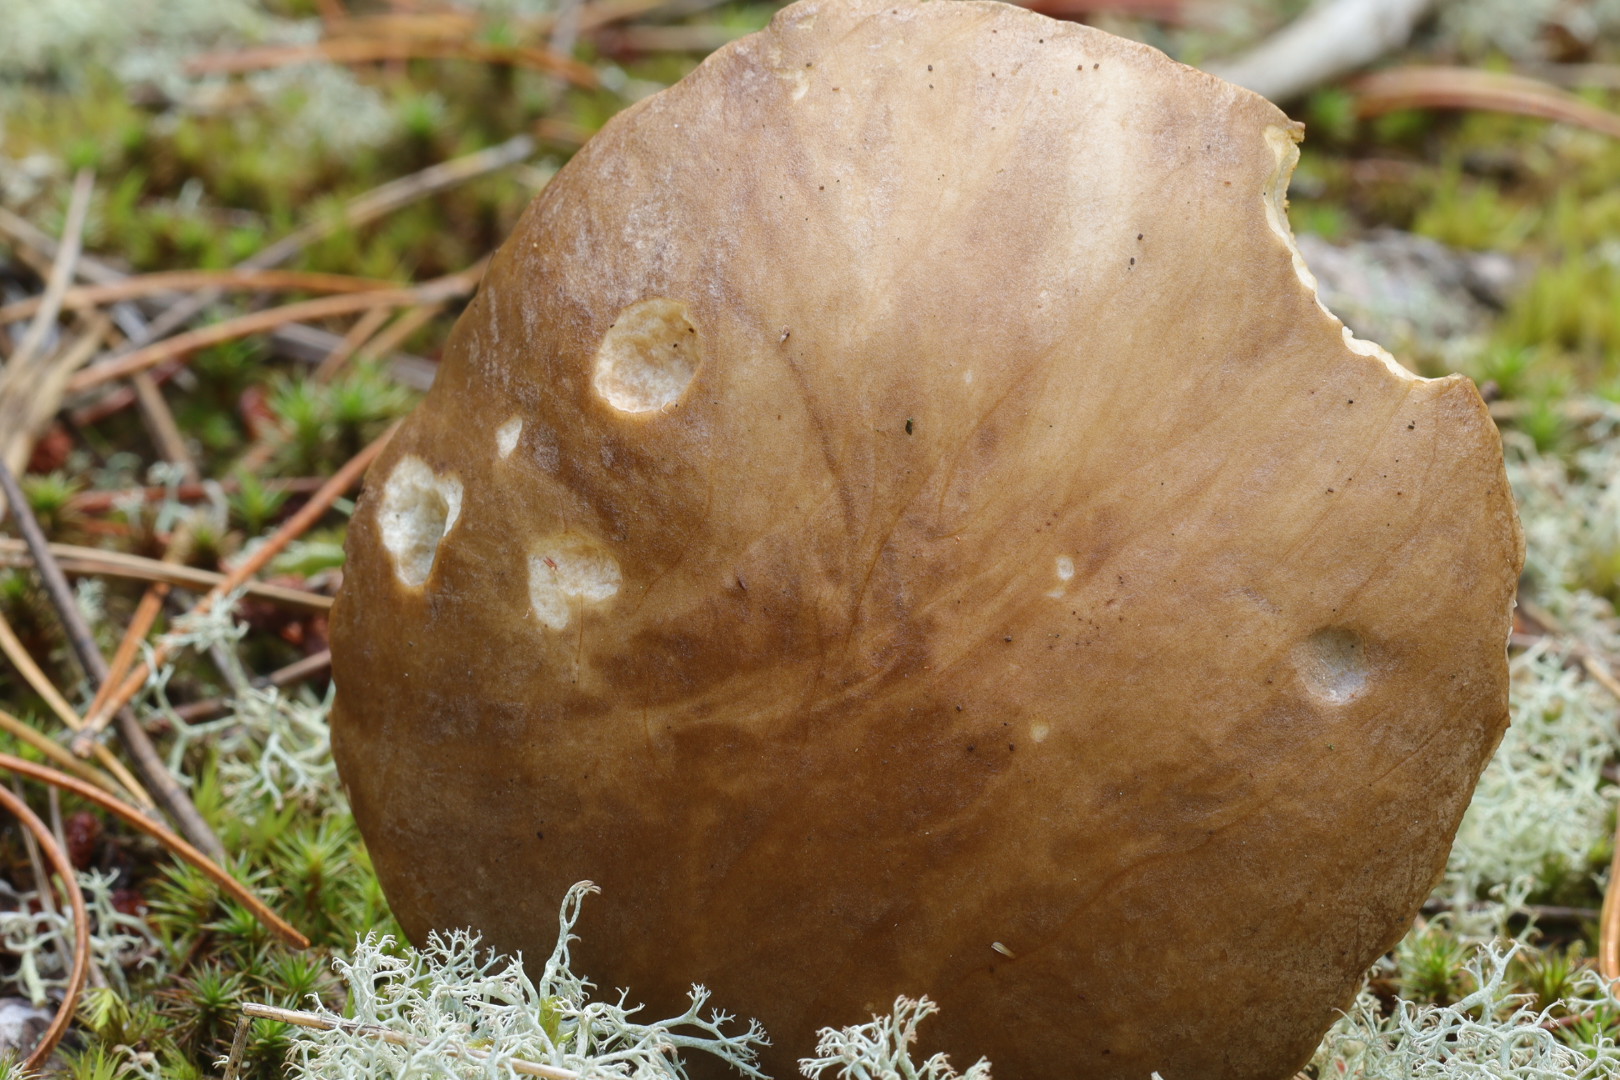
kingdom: Fungi
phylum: Basidiomycota
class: Agaricomycetes
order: Boletales
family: Boletaceae
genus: Leccinum
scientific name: Leccinum cyaneobasileucum
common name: almindelig skælrørhat
